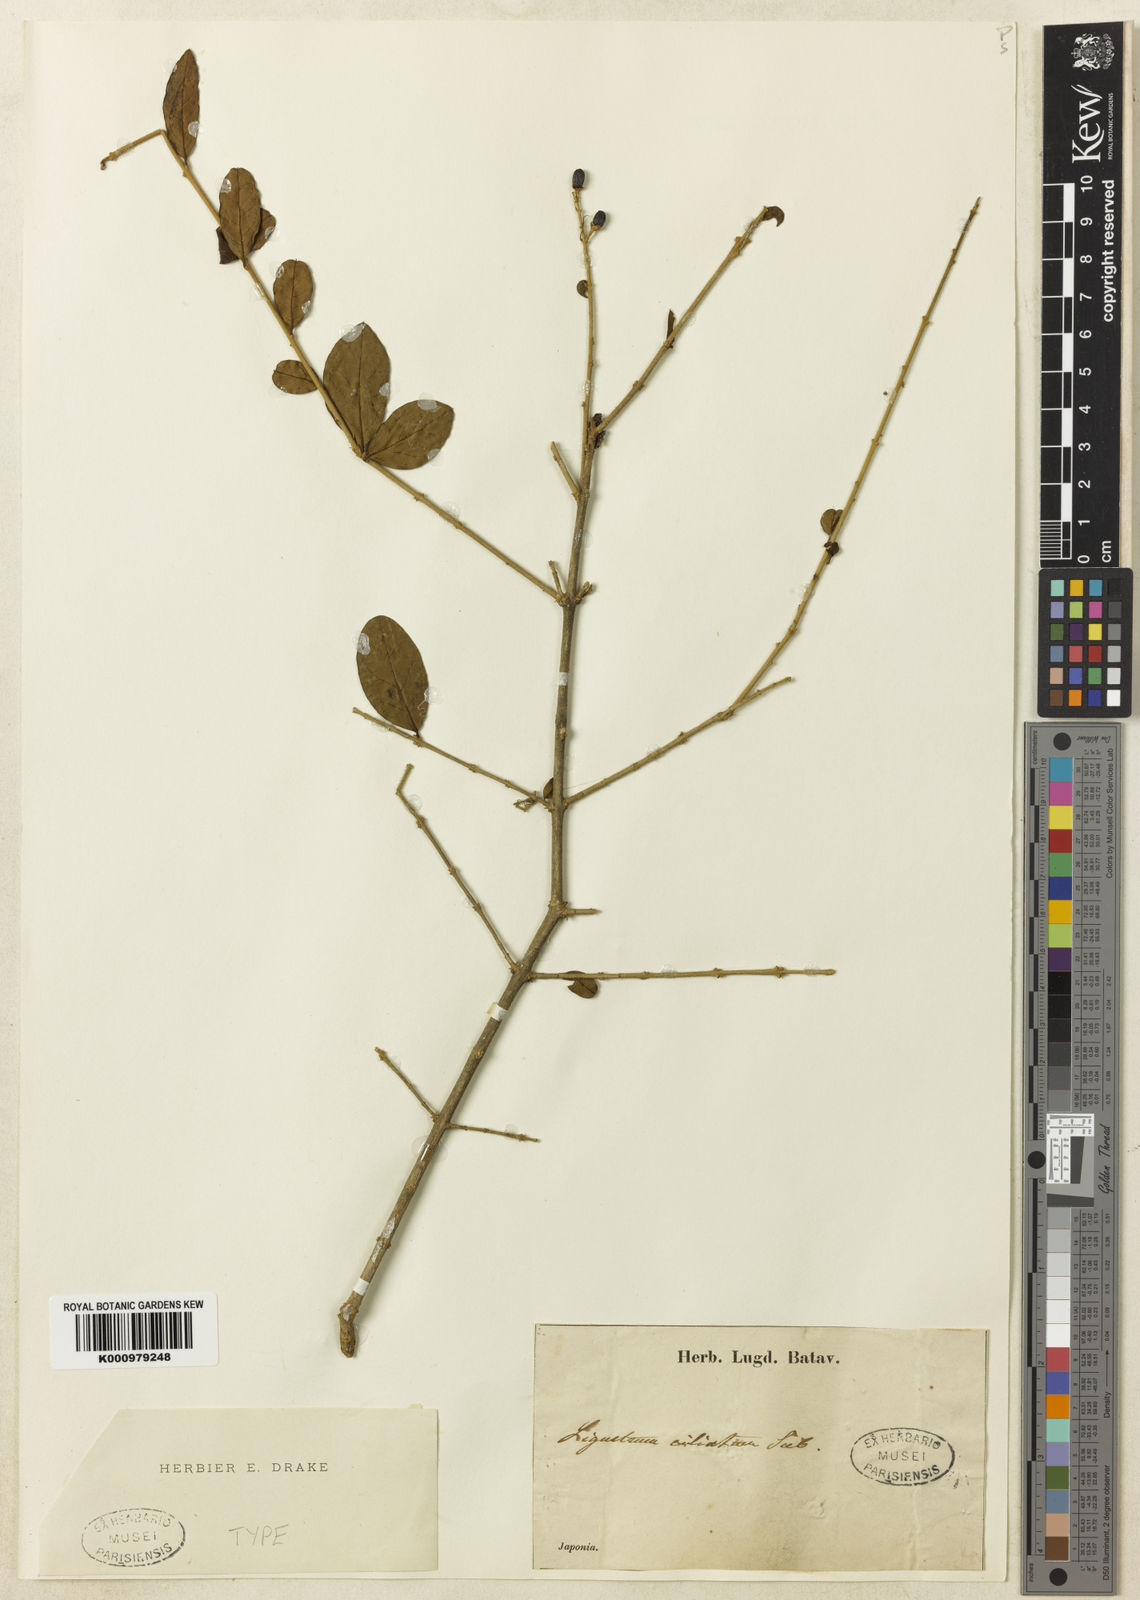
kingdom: Plantae
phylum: Tracheophyta
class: Magnoliopsida
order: Lamiales
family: Oleaceae
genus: Ligustrum
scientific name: Ligustrum ibota
